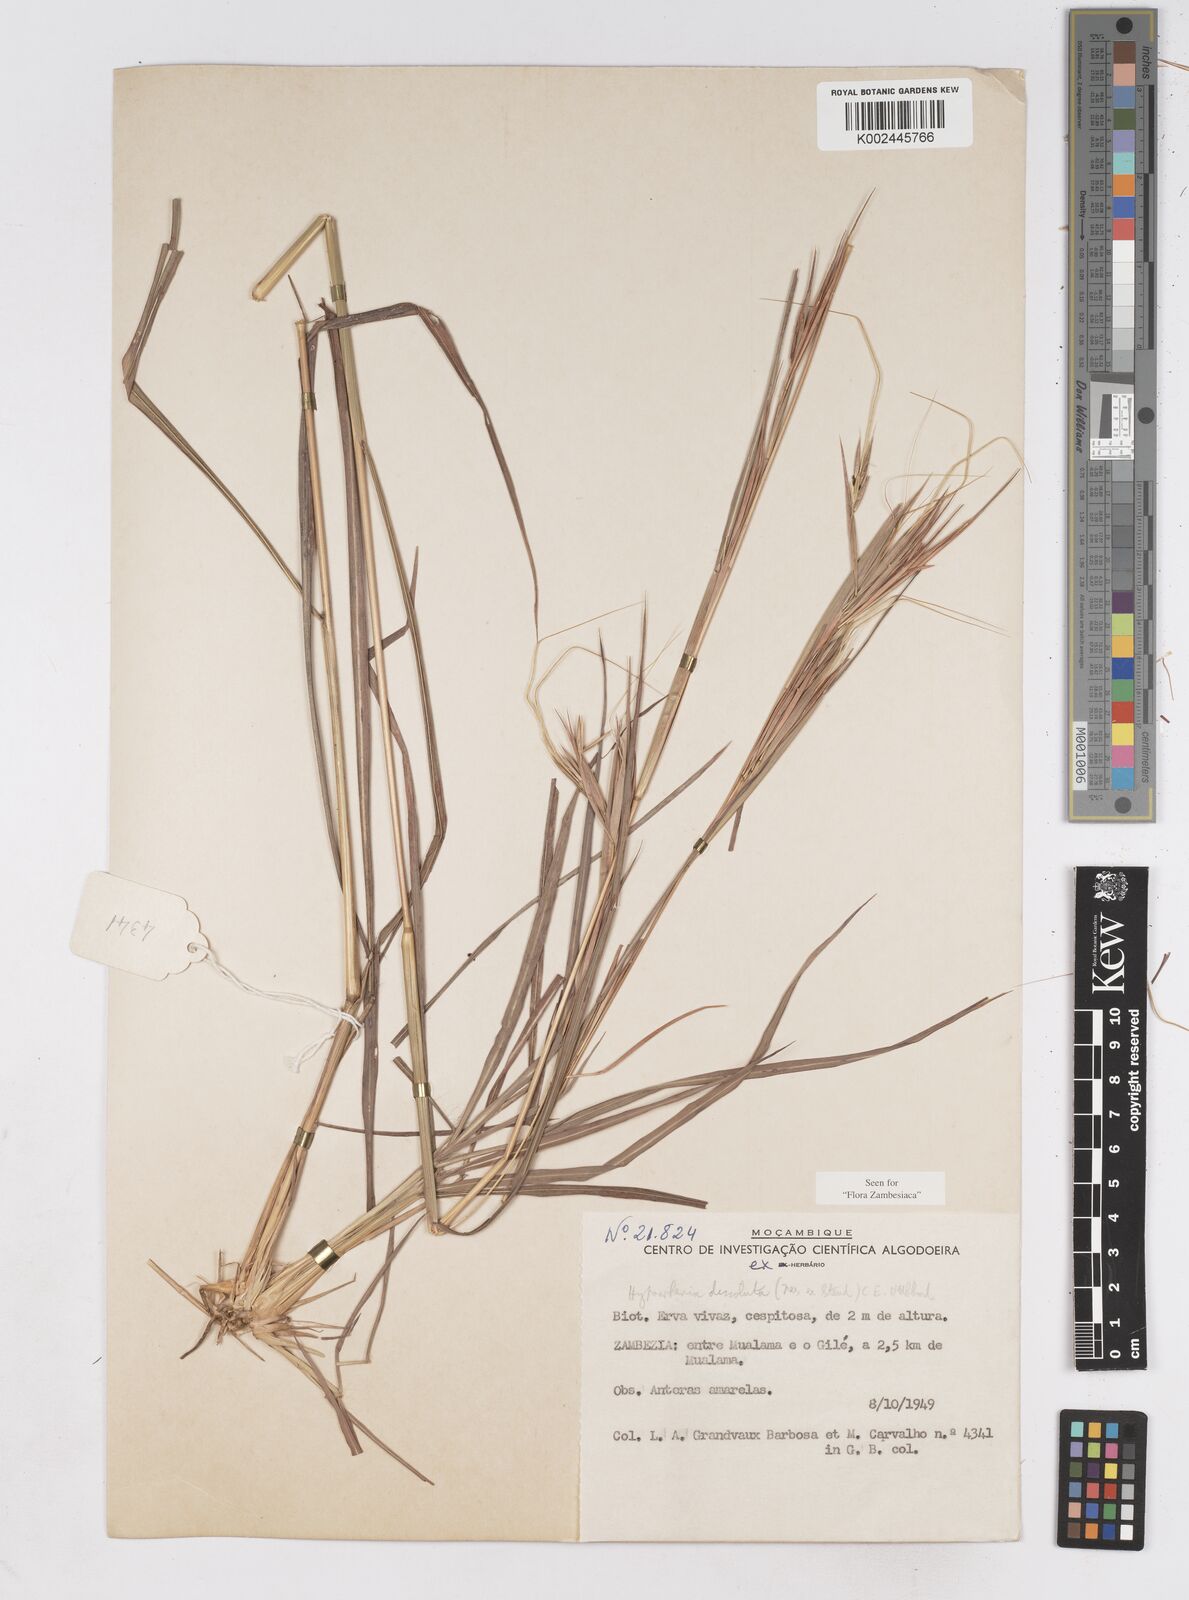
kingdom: Plantae
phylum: Tracheophyta
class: Liliopsida
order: Poales
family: Poaceae
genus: Hyperthelia
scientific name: Hyperthelia dissoluta
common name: Yellow thatching grass
